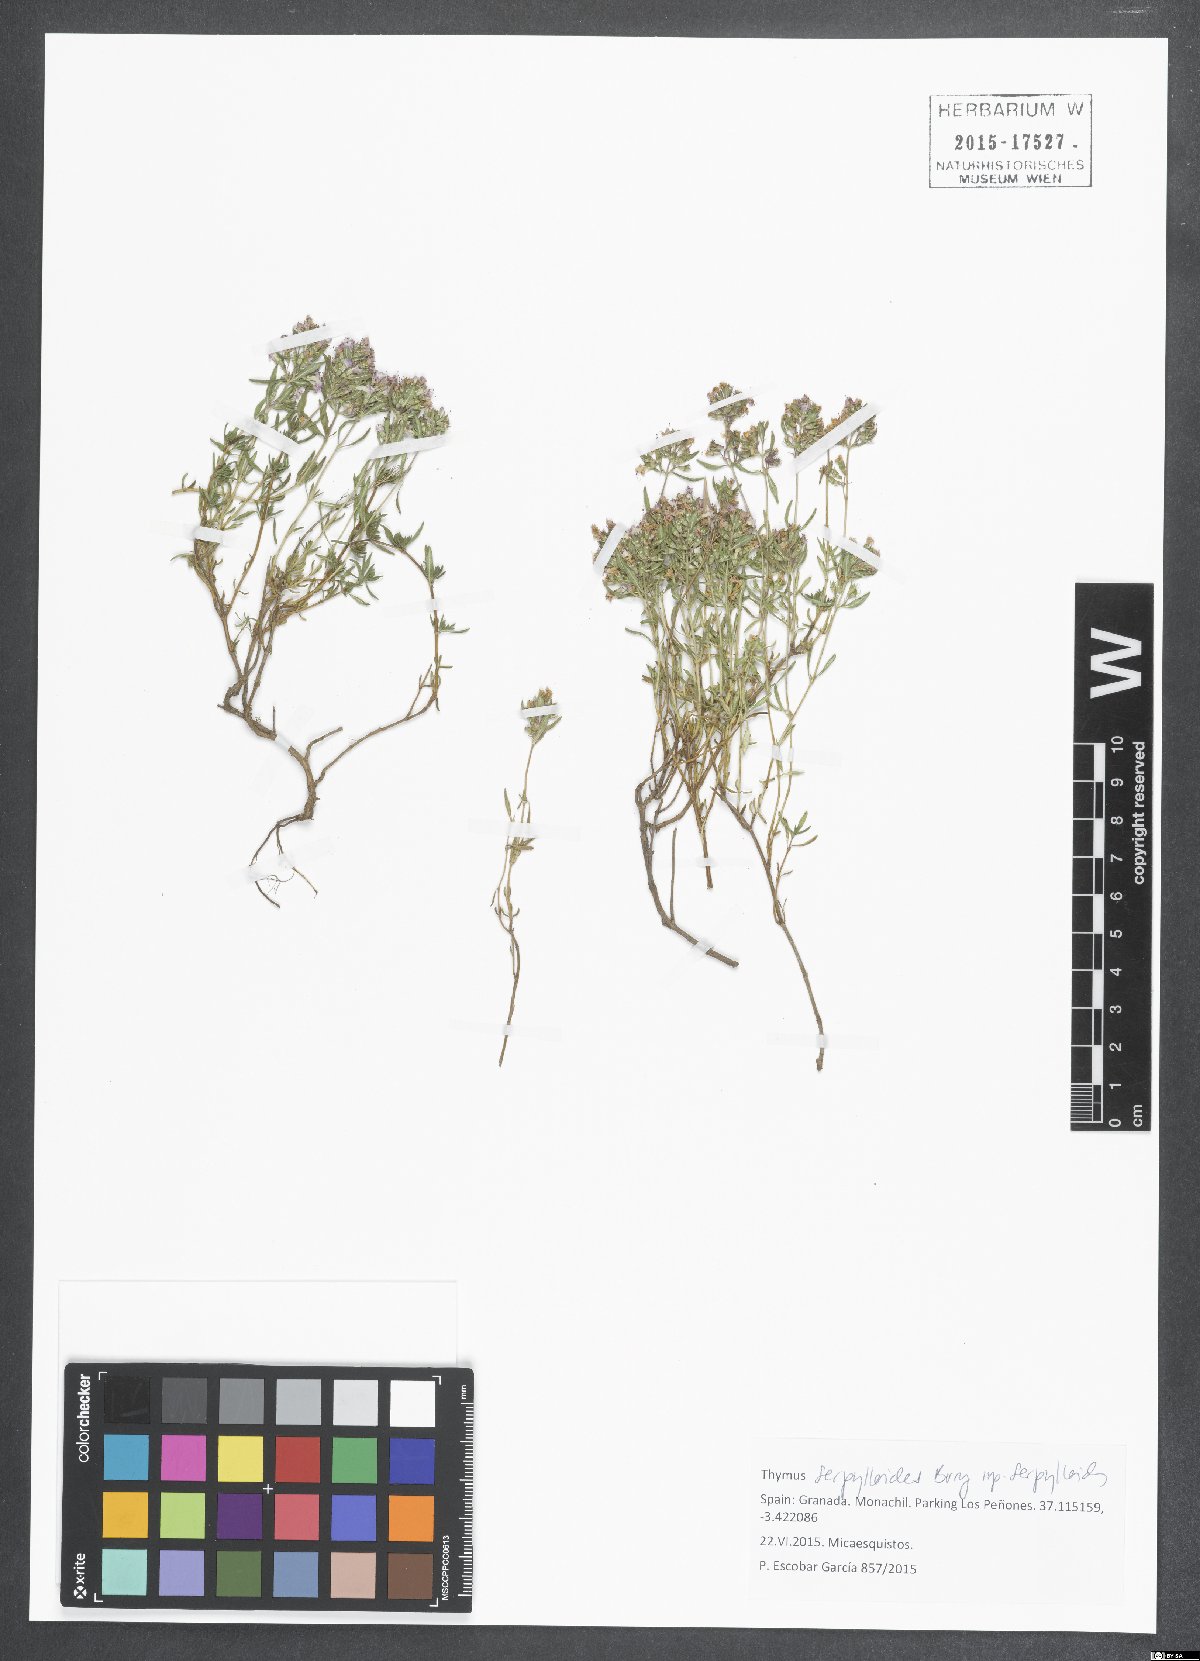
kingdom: Plantae
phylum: Tracheophyta
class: Magnoliopsida
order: Lamiales
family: Lamiaceae
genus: Thymus
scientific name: Thymus serpylloides
